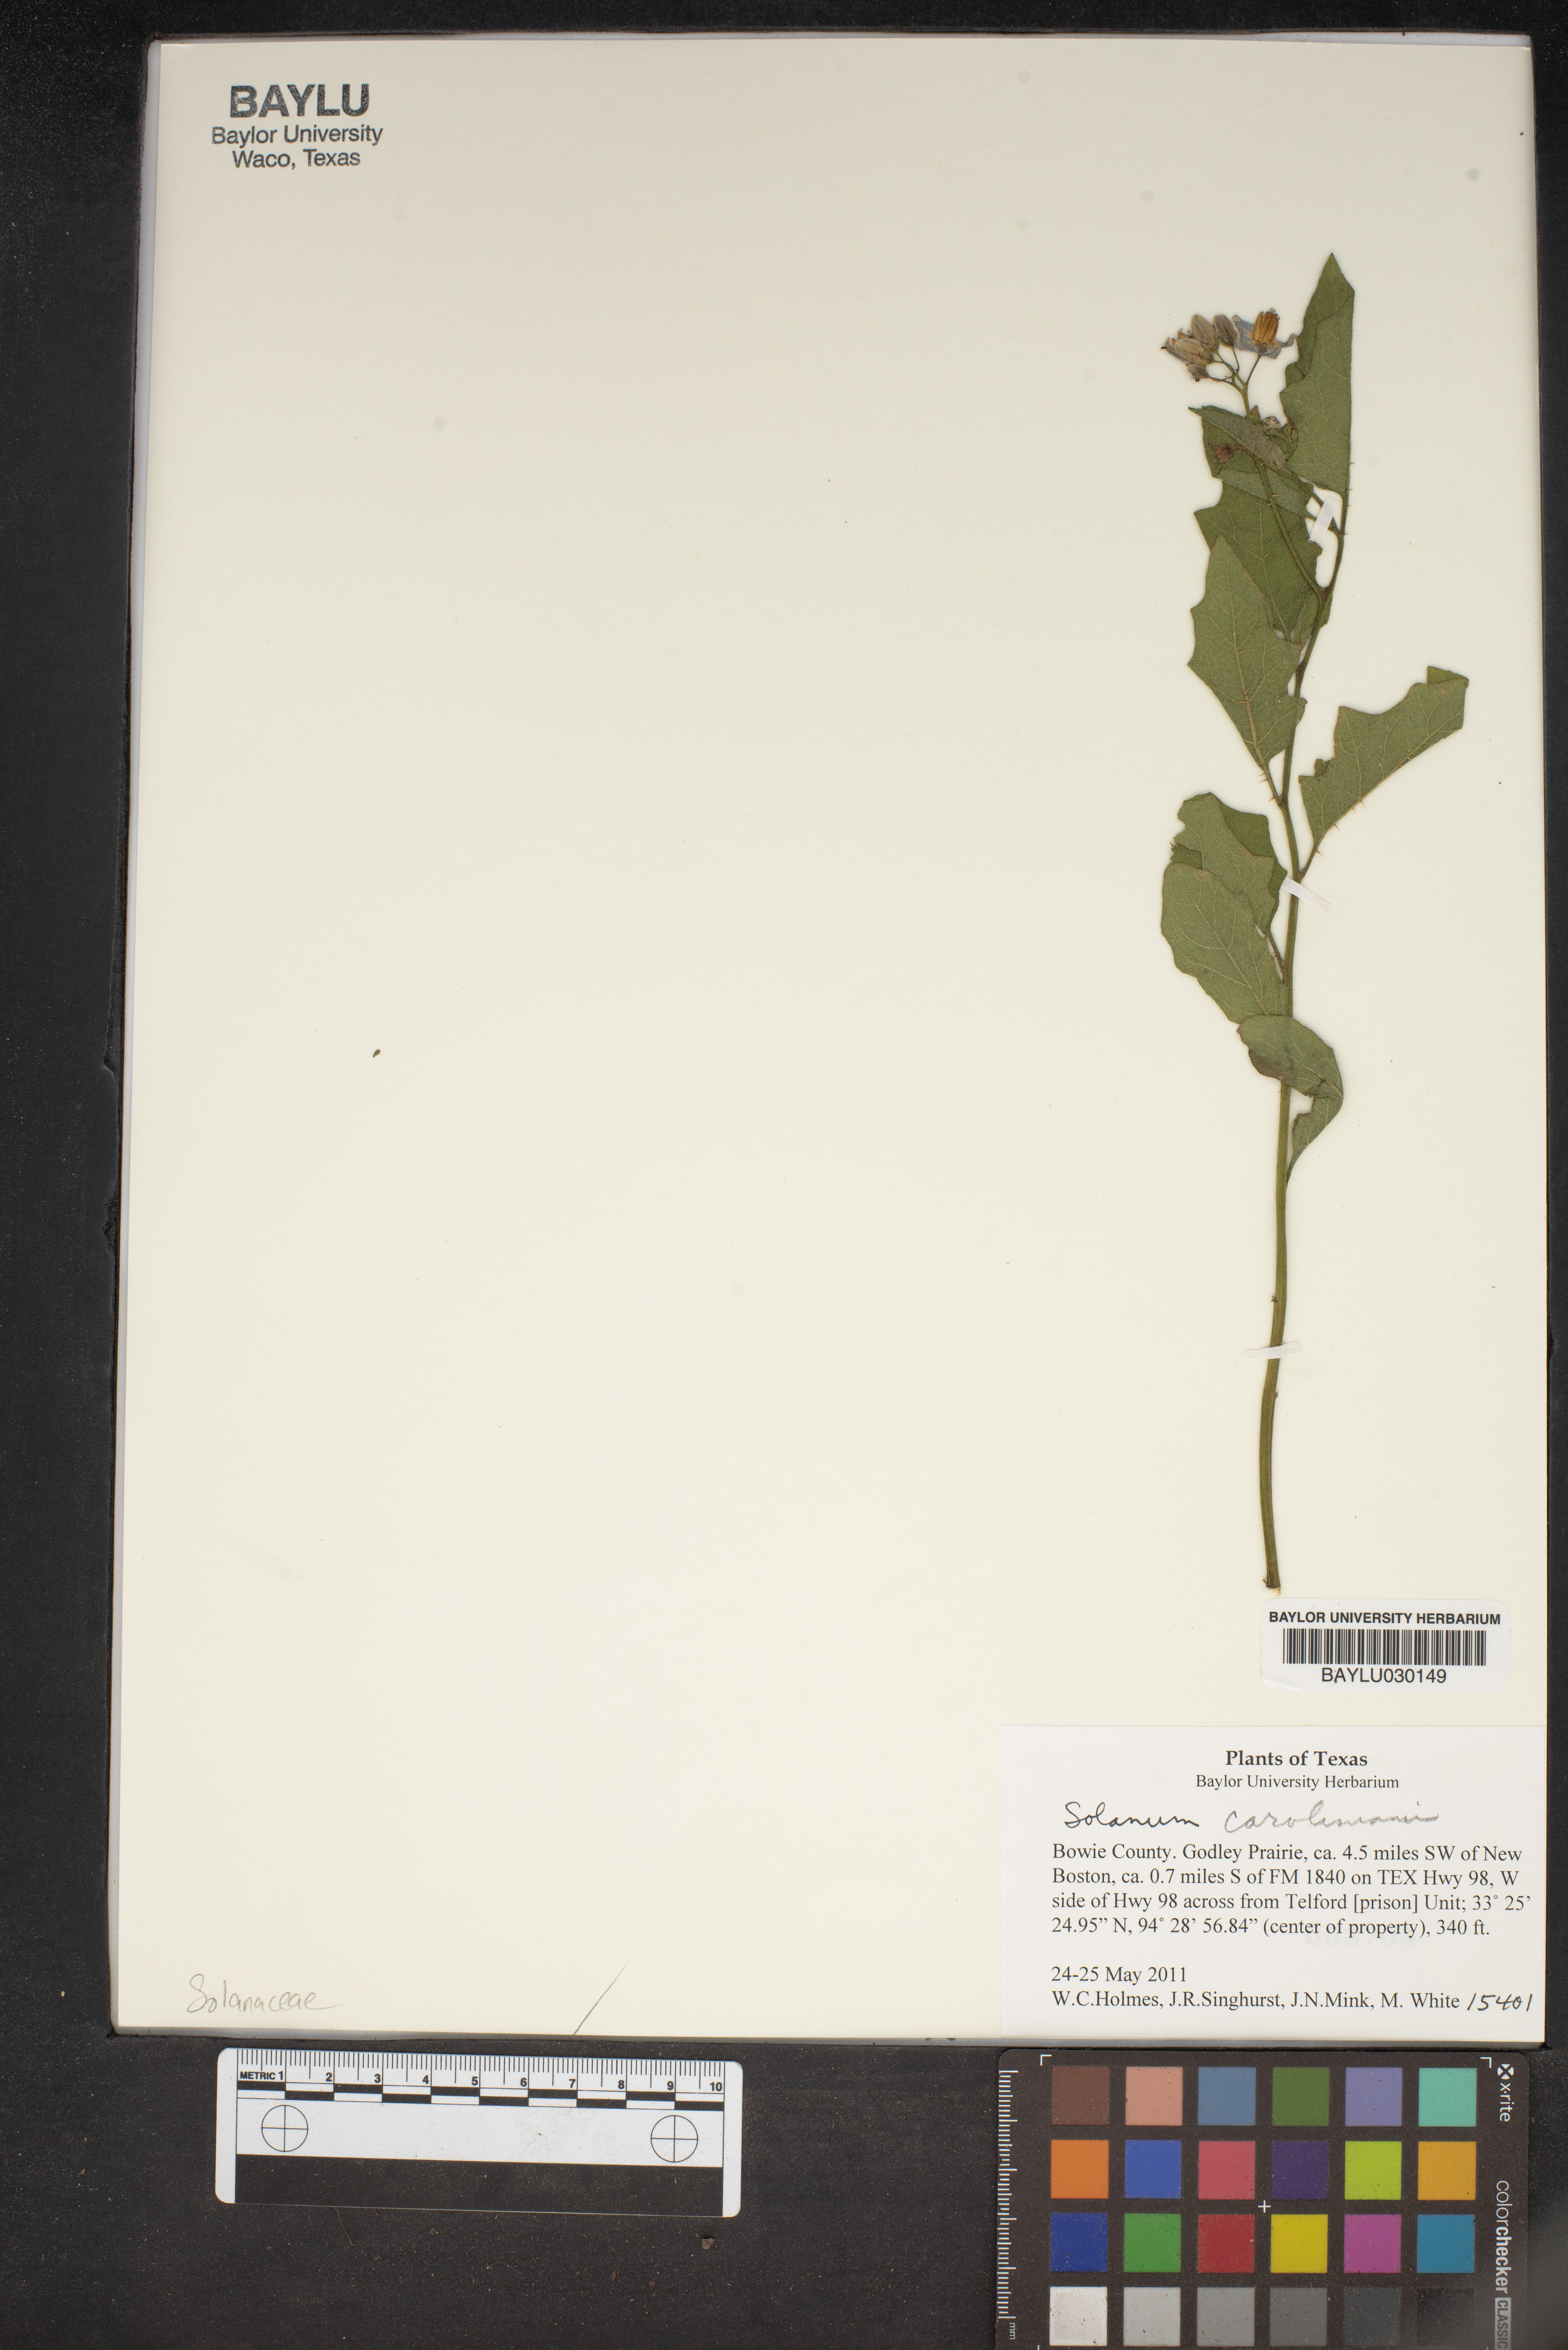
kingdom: Plantae
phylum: Tracheophyta
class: Magnoliopsida
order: Solanales
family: Solanaceae
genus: Solanum
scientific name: Solanum houstonii
